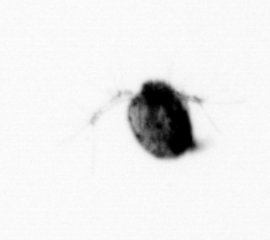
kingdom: Animalia
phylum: Arthropoda
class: Copepoda
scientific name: Copepoda
